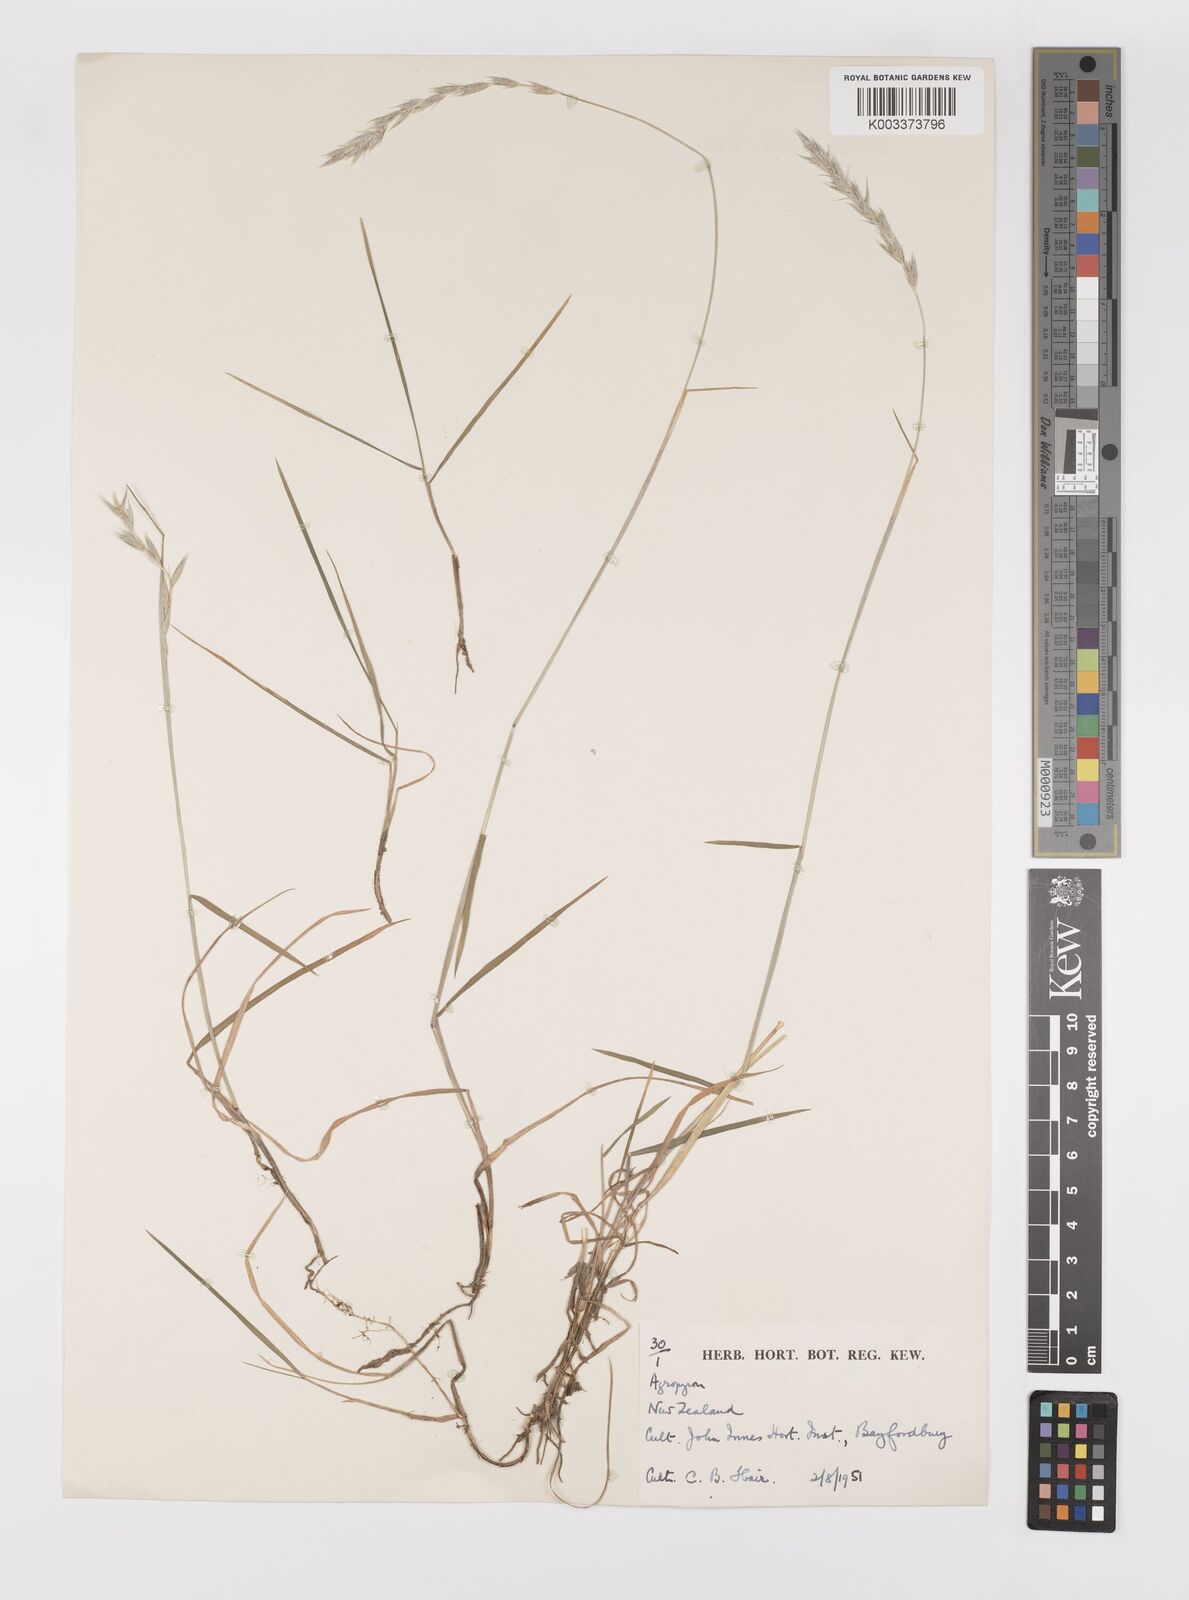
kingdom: Plantae
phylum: Tracheophyta
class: Liliopsida
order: Poales
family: Poaceae
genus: Elymus
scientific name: Elymus
